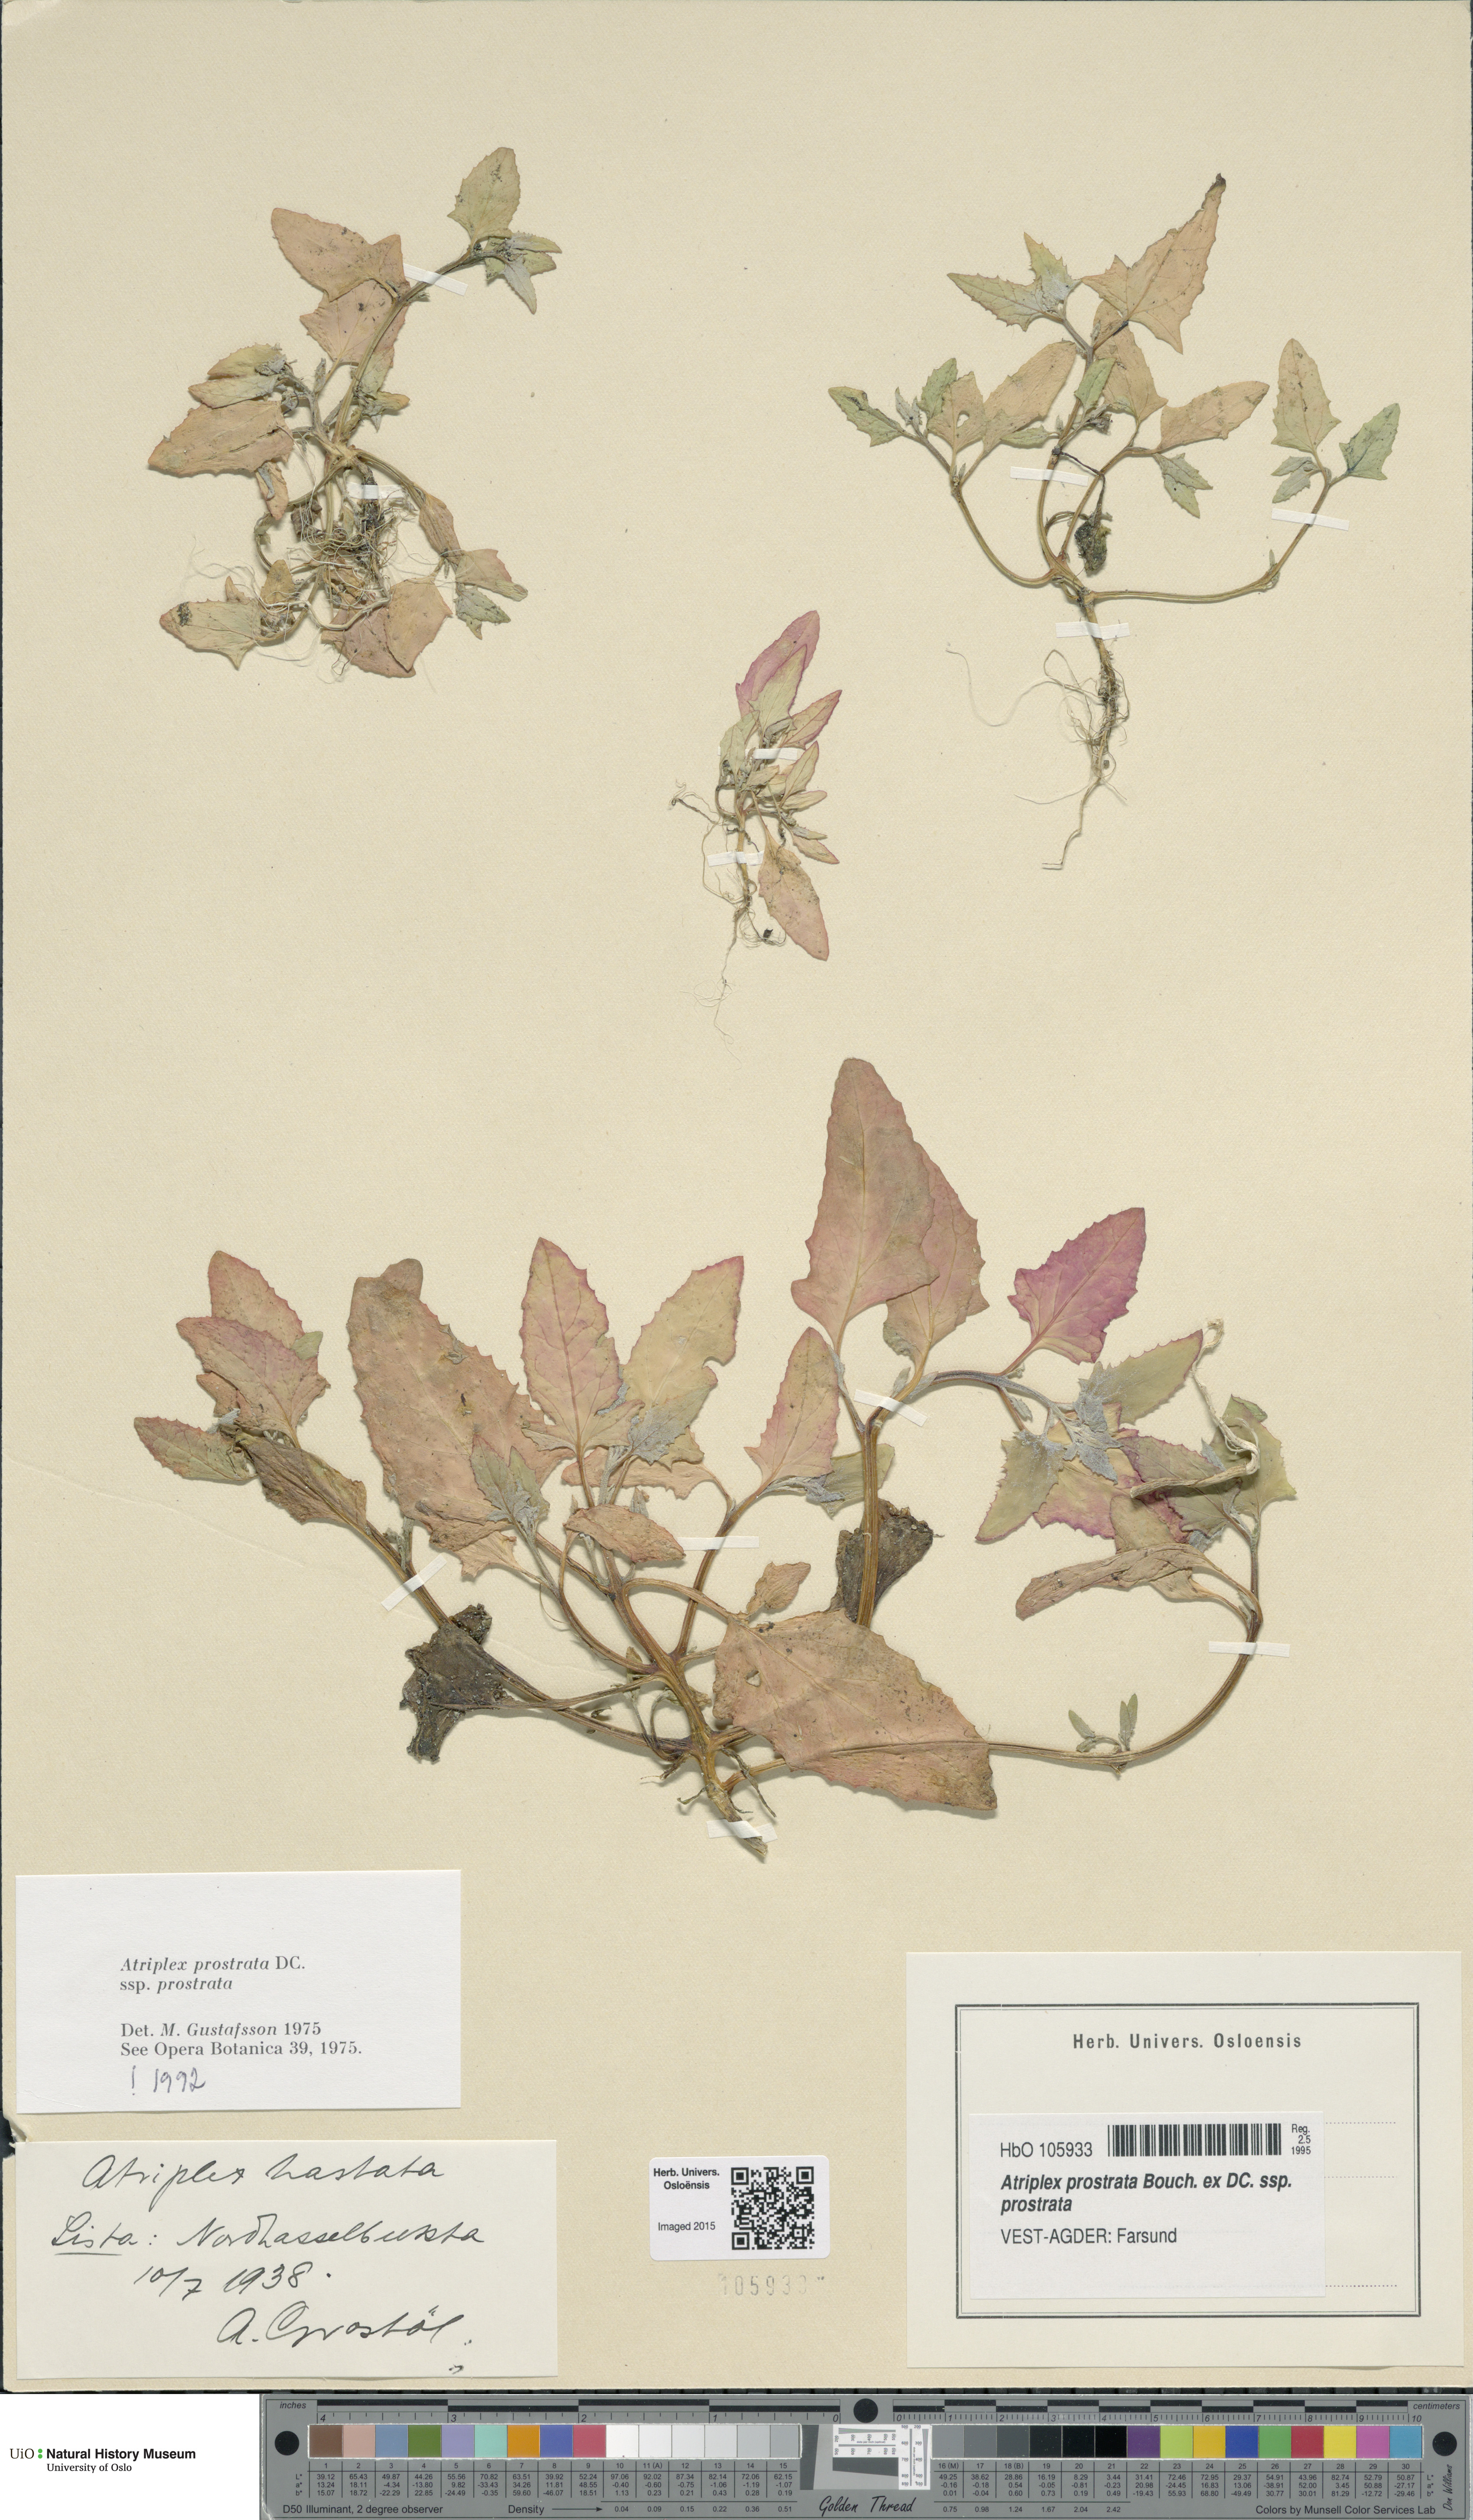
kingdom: Plantae
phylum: Tracheophyta
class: Magnoliopsida
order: Caryophyllales
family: Amaranthaceae
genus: Atriplex
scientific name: Atriplex prostrata
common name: Spear-leaved orache
